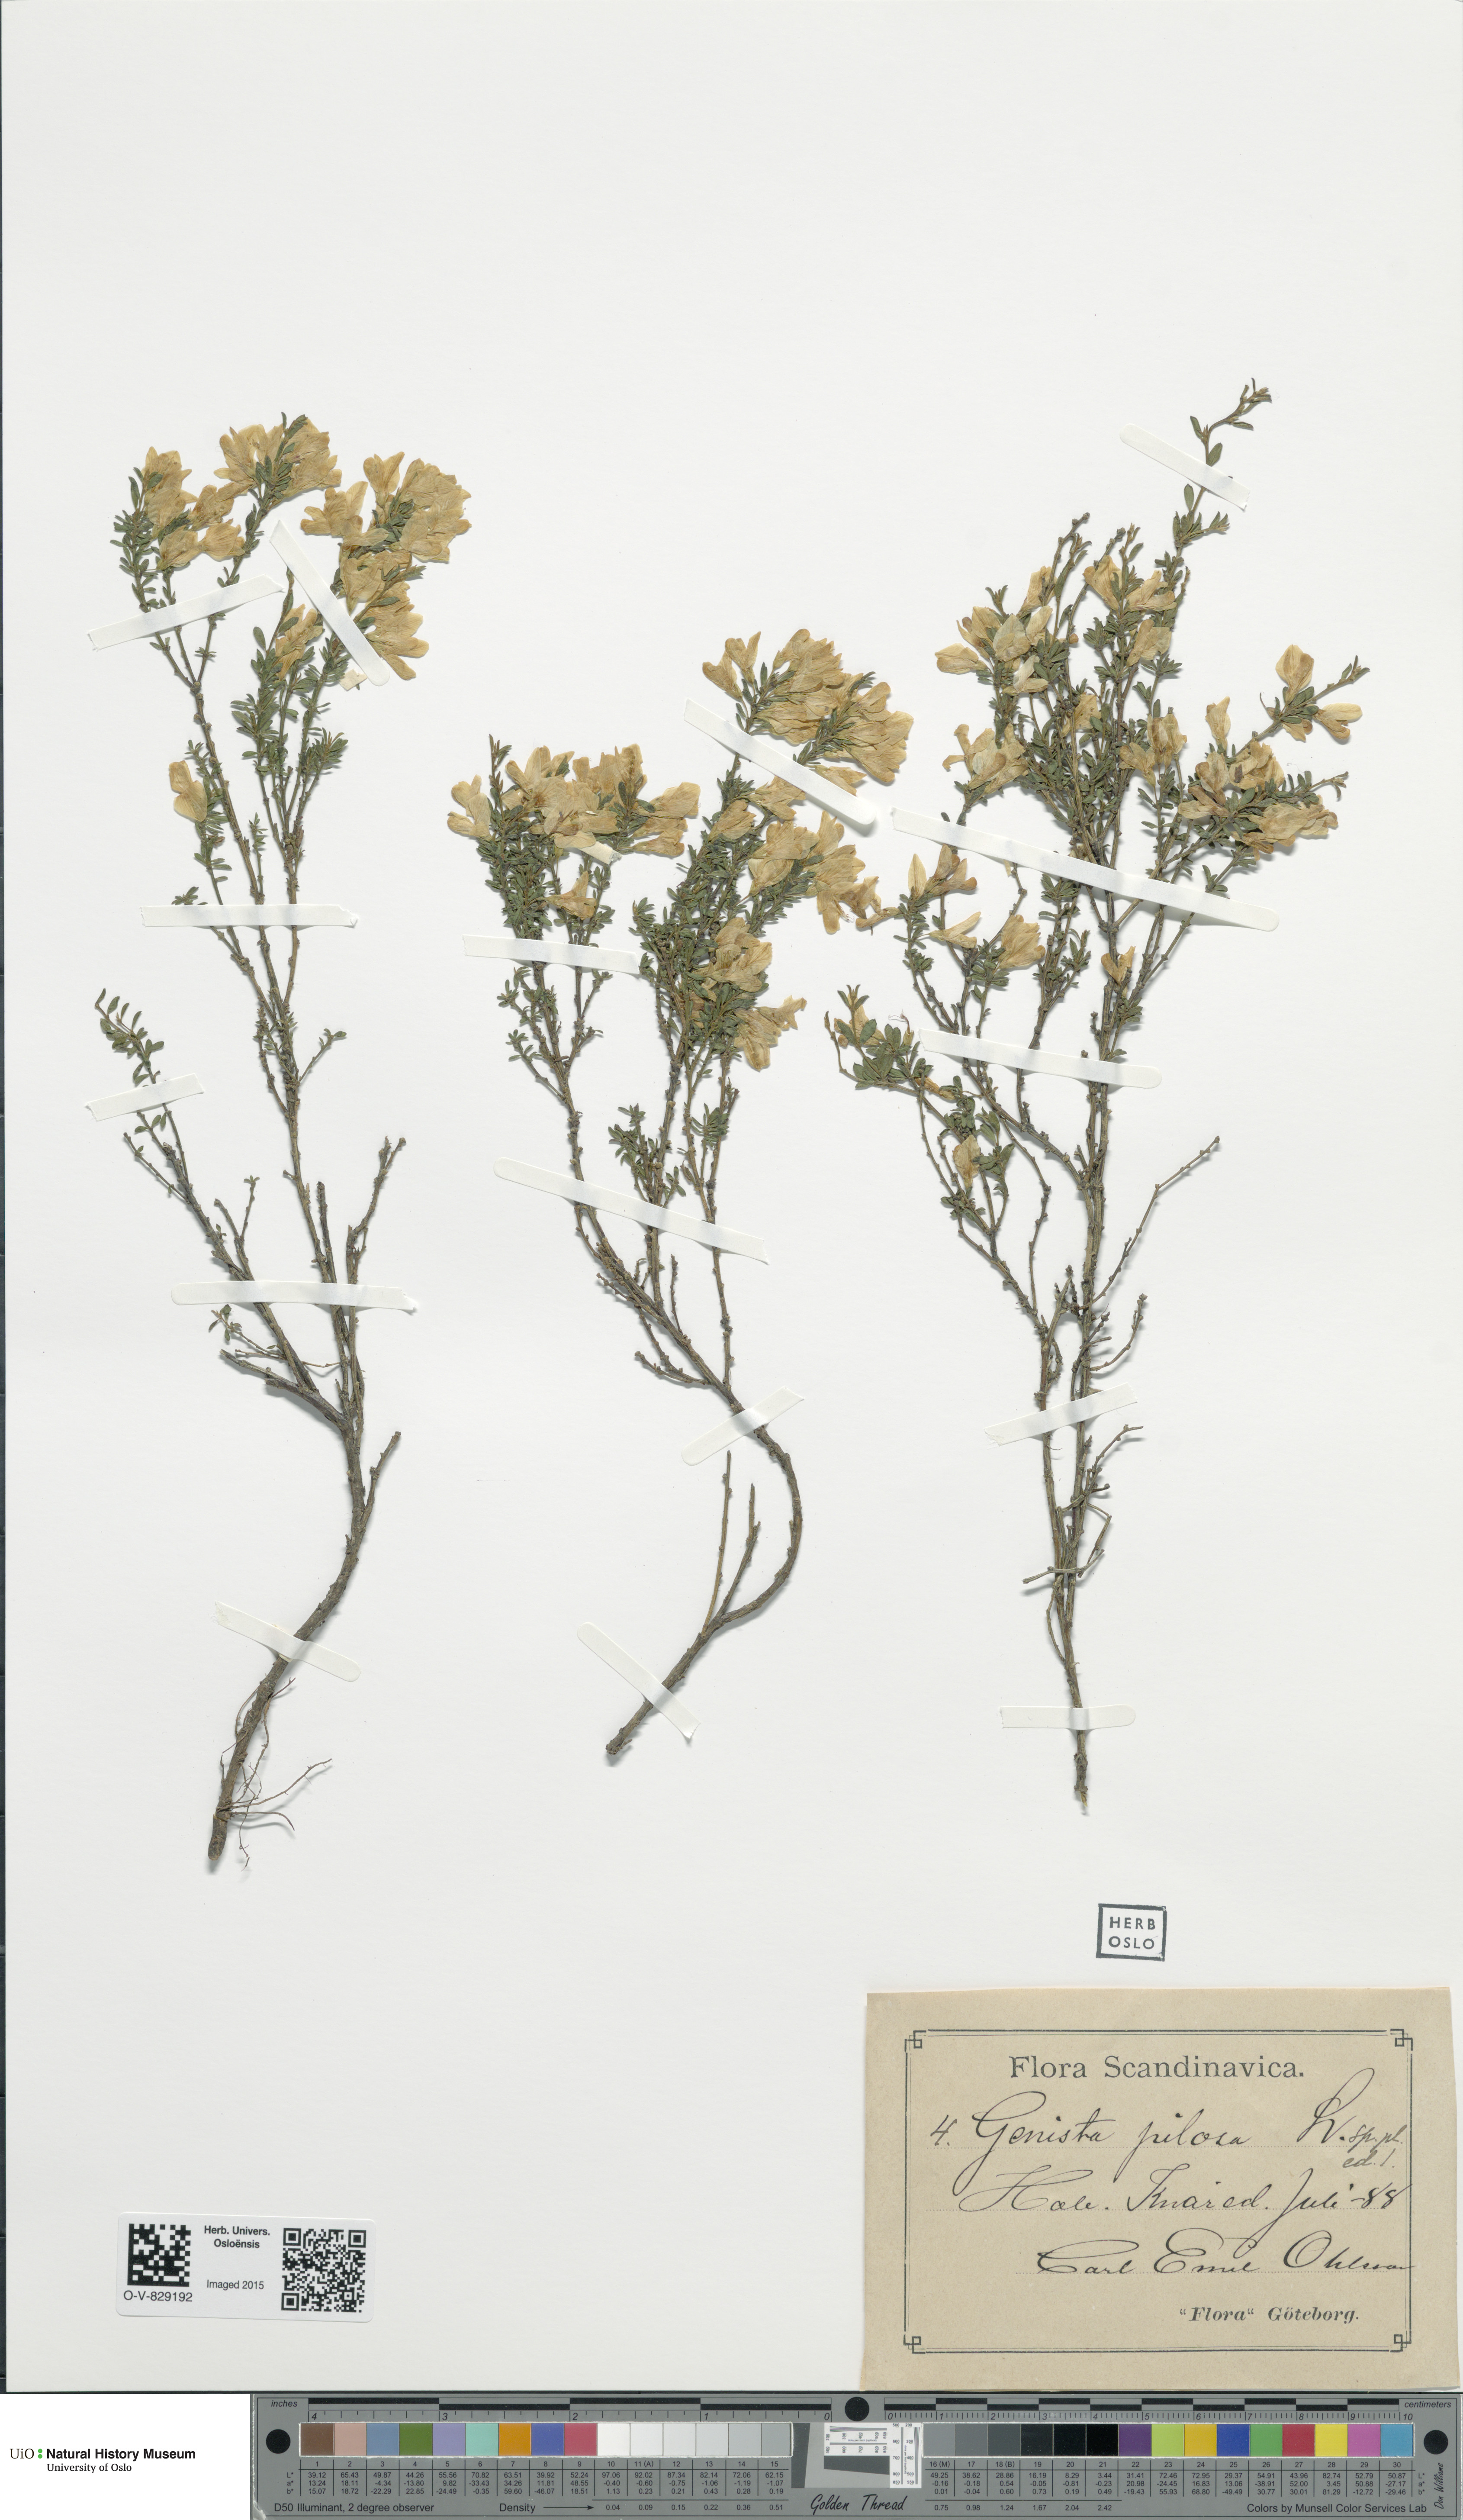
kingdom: Plantae
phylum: Tracheophyta
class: Magnoliopsida
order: Fabales
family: Fabaceae
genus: Genista
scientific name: Genista pilosa
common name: Hairy greenweed
